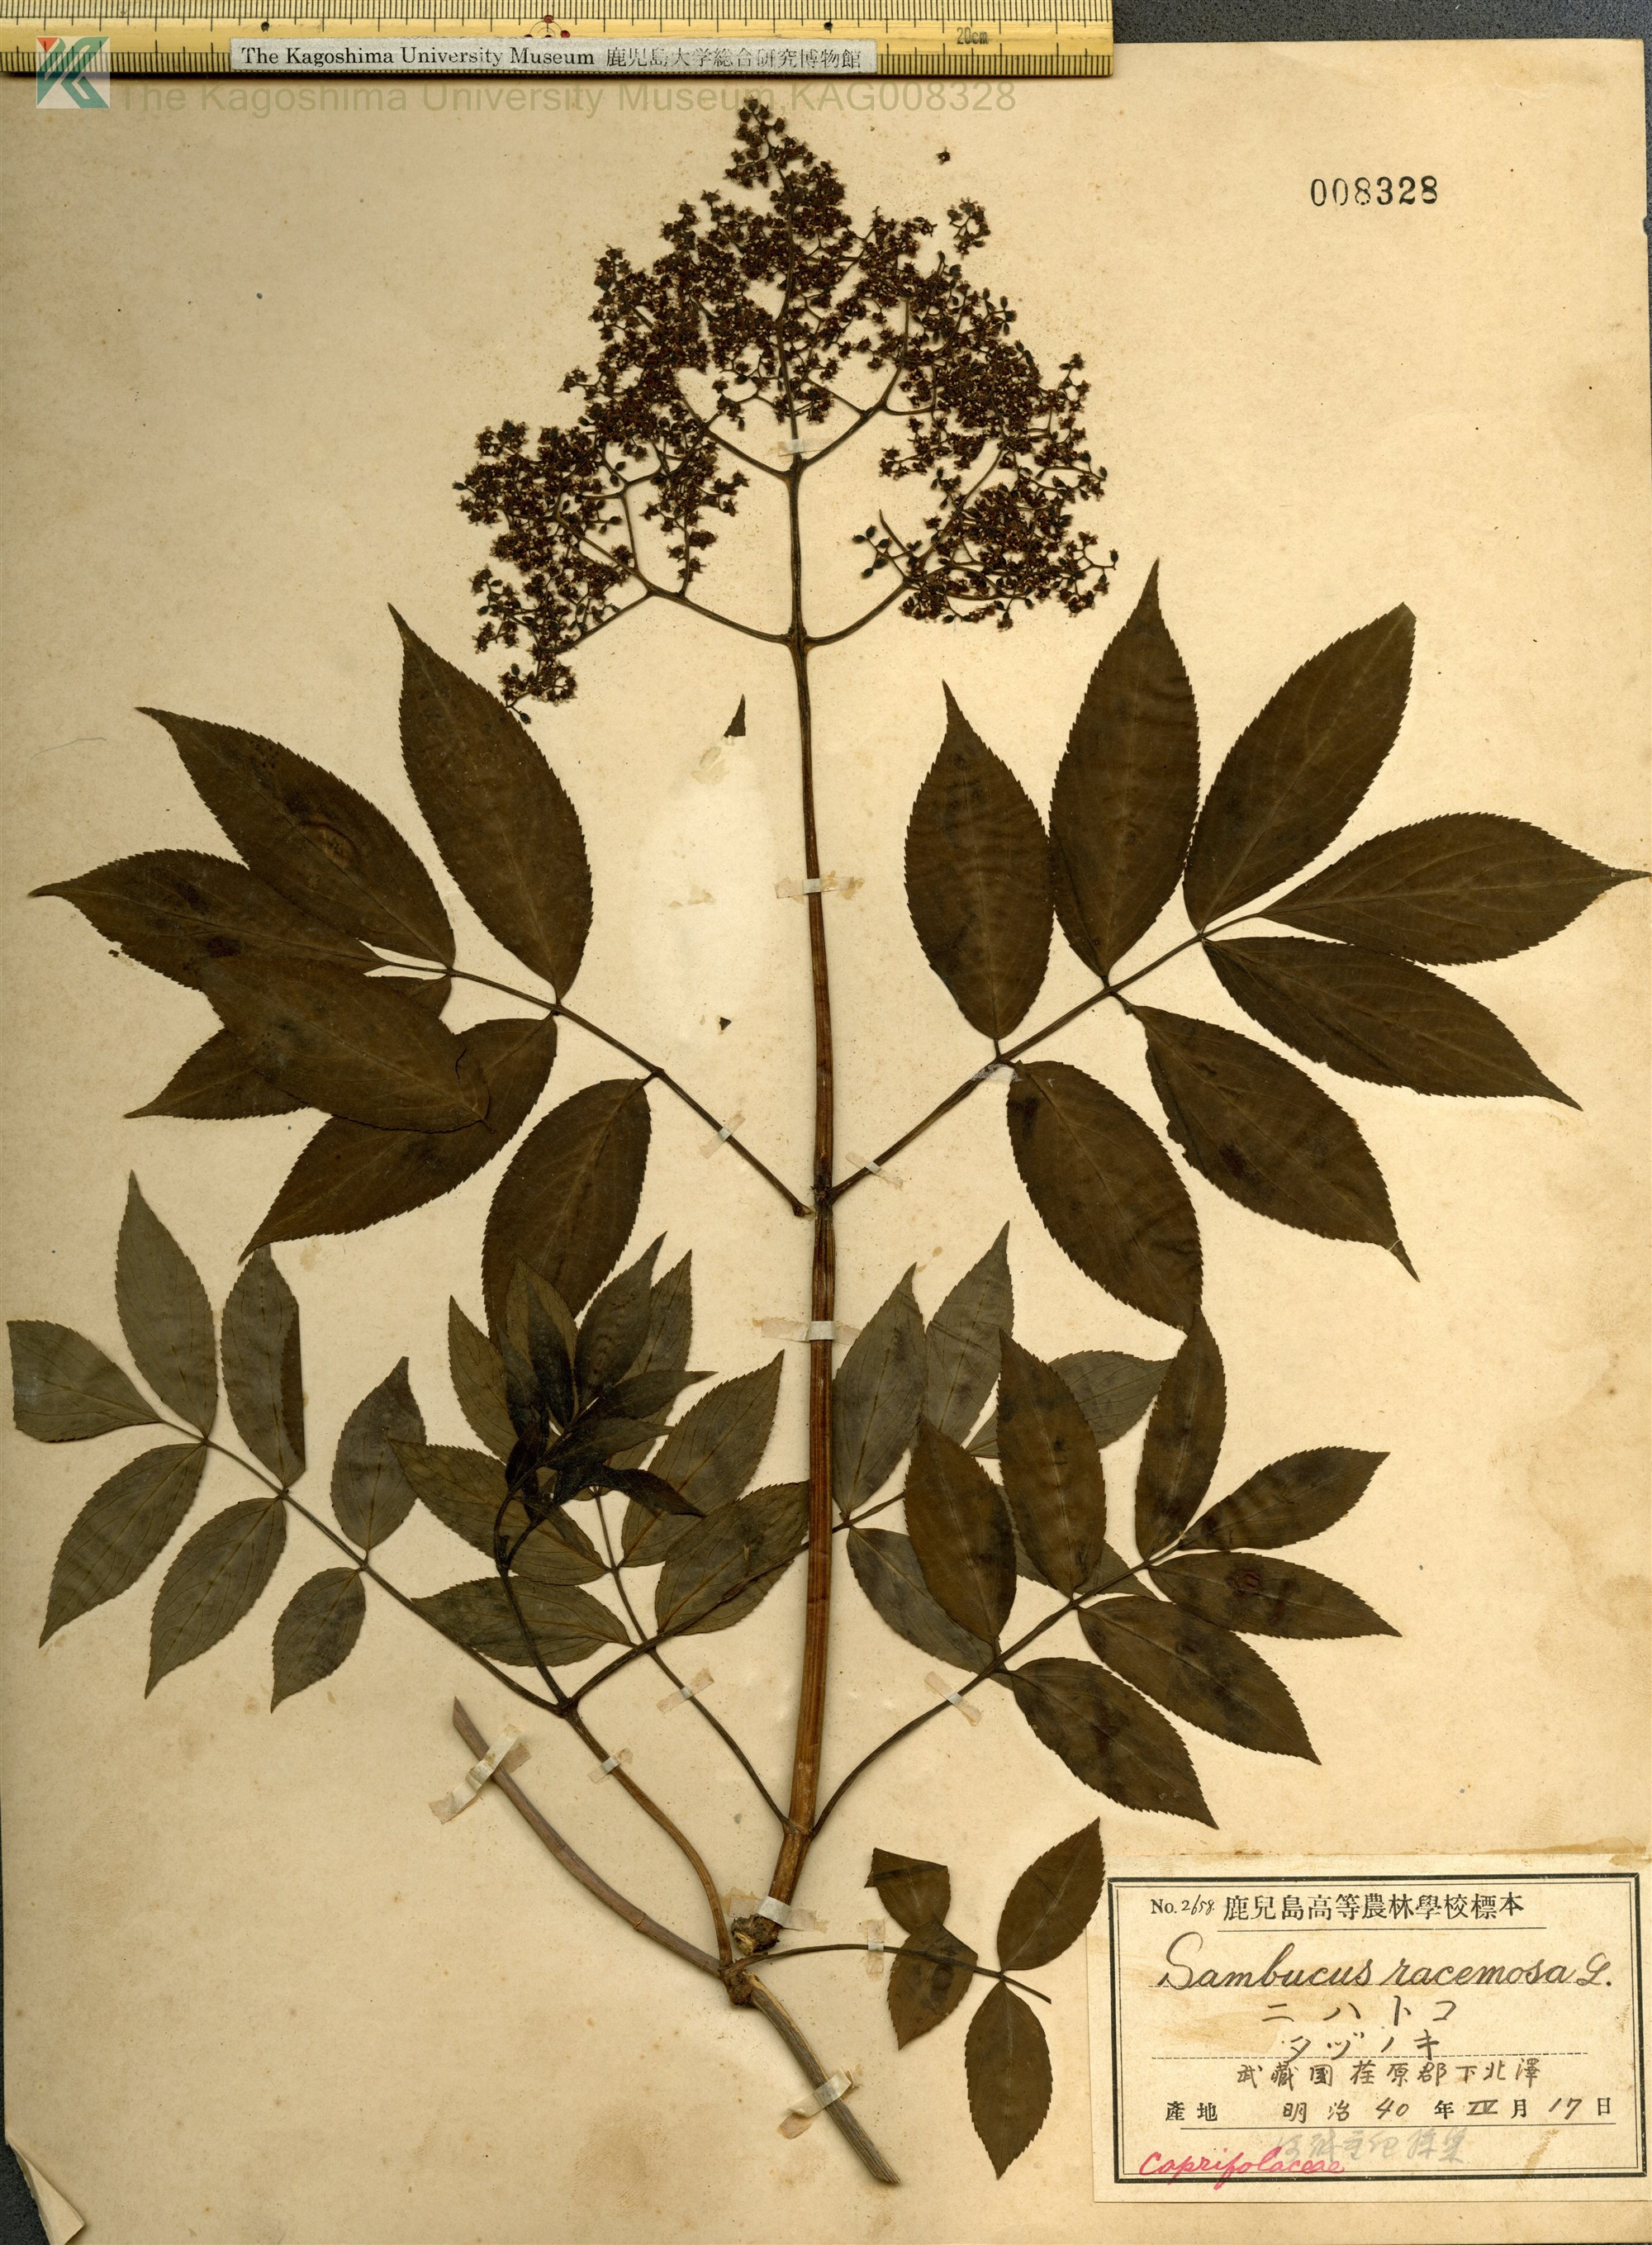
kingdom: Plantae
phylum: Tracheophyta
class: Magnoliopsida
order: Dipsacales
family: Viburnaceae
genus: Sambucus
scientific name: Sambucus sieboldiana
